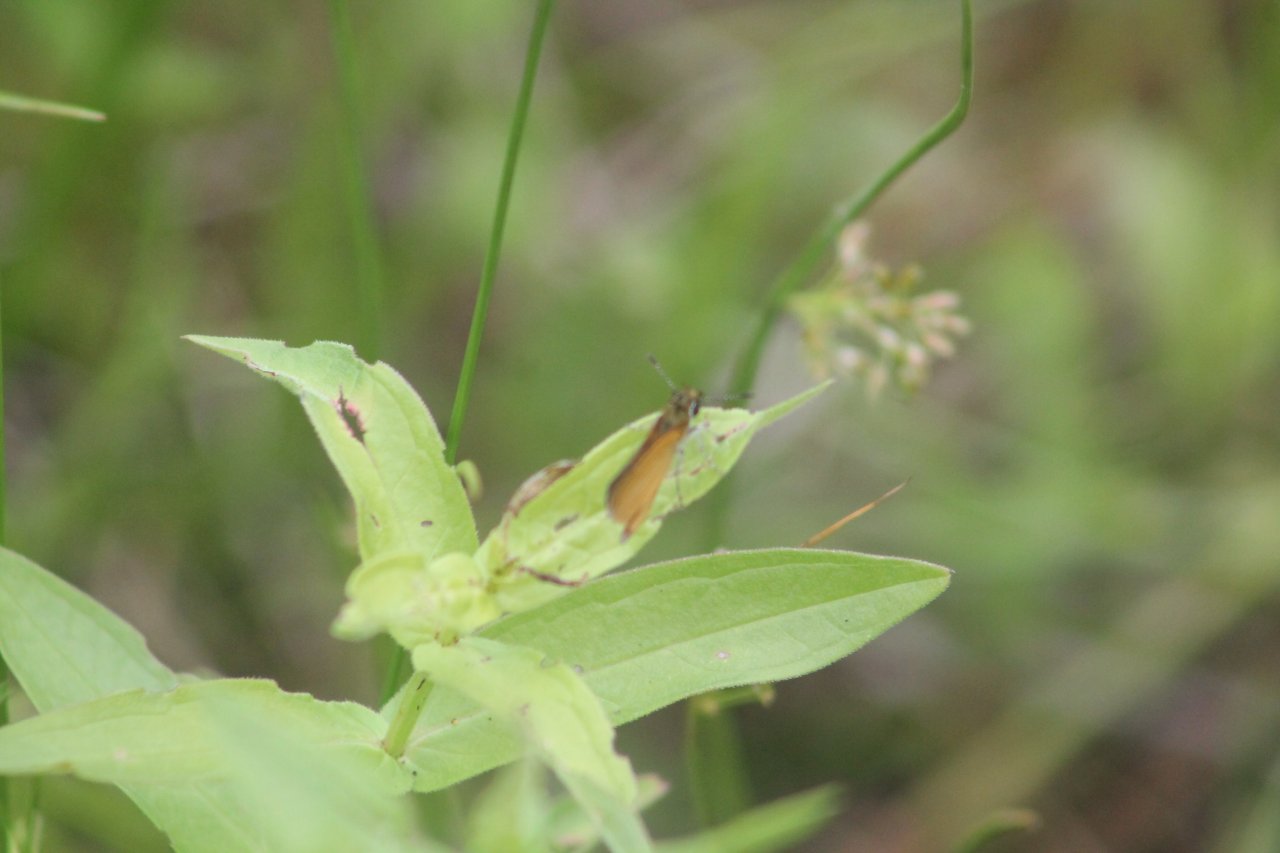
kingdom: Animalia
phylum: Arthropoda
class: Insecta
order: Lepidoptera
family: Hesperiidae
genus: Ancyloxypha
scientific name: Ancyloxypha numitor
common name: Least Skipper
